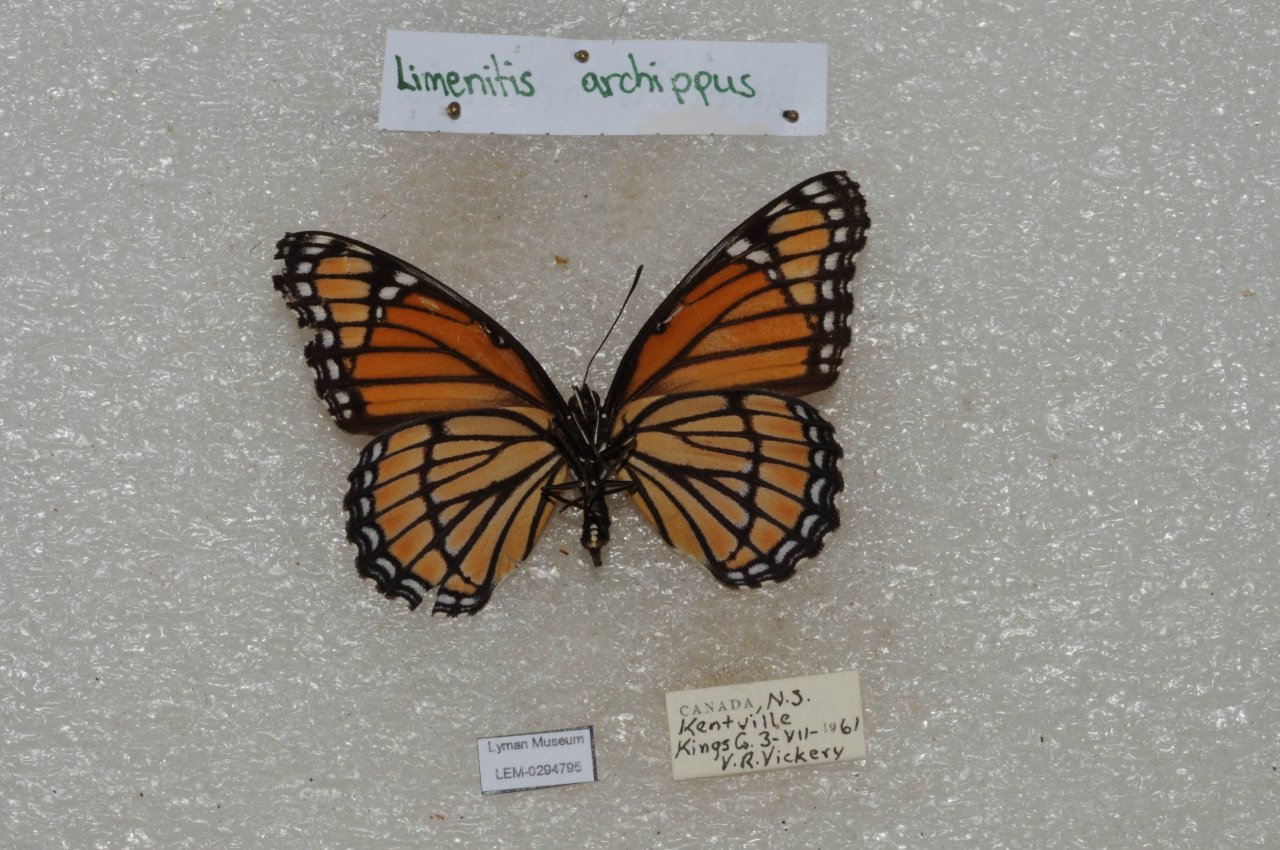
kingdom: Animalia
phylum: Arthropoda
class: Insecta
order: Lepidoptera
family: Nymphalidae
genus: Limenitis
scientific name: Limenitis archippus
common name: Viceroy
